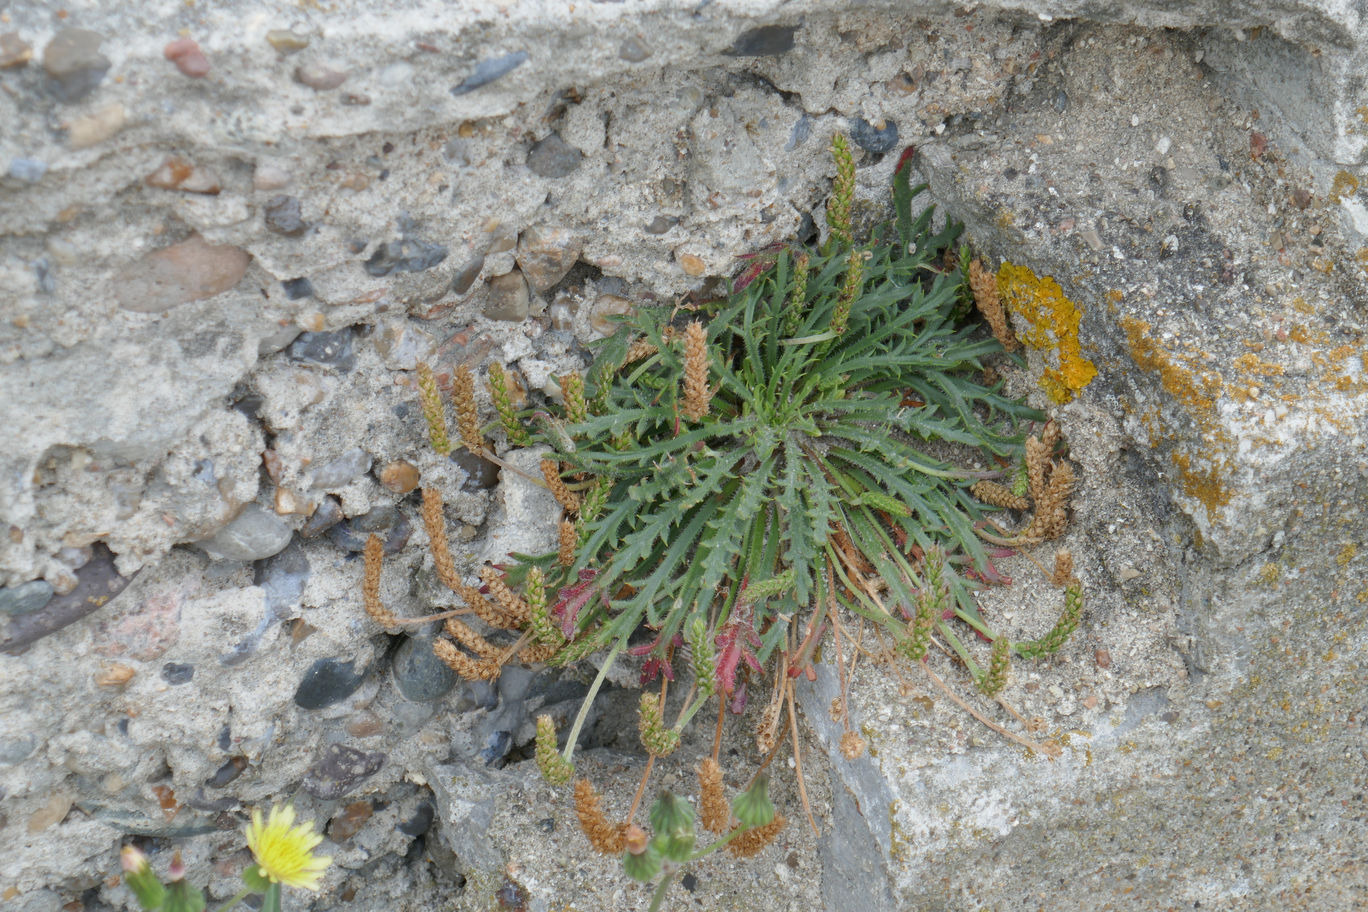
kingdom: Plantae
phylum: Tracheophyta
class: Magnoliopsida
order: Lamiales
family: Plantaginaceae
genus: Plantago
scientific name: Plantago coronopus
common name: Fliget vejbred
